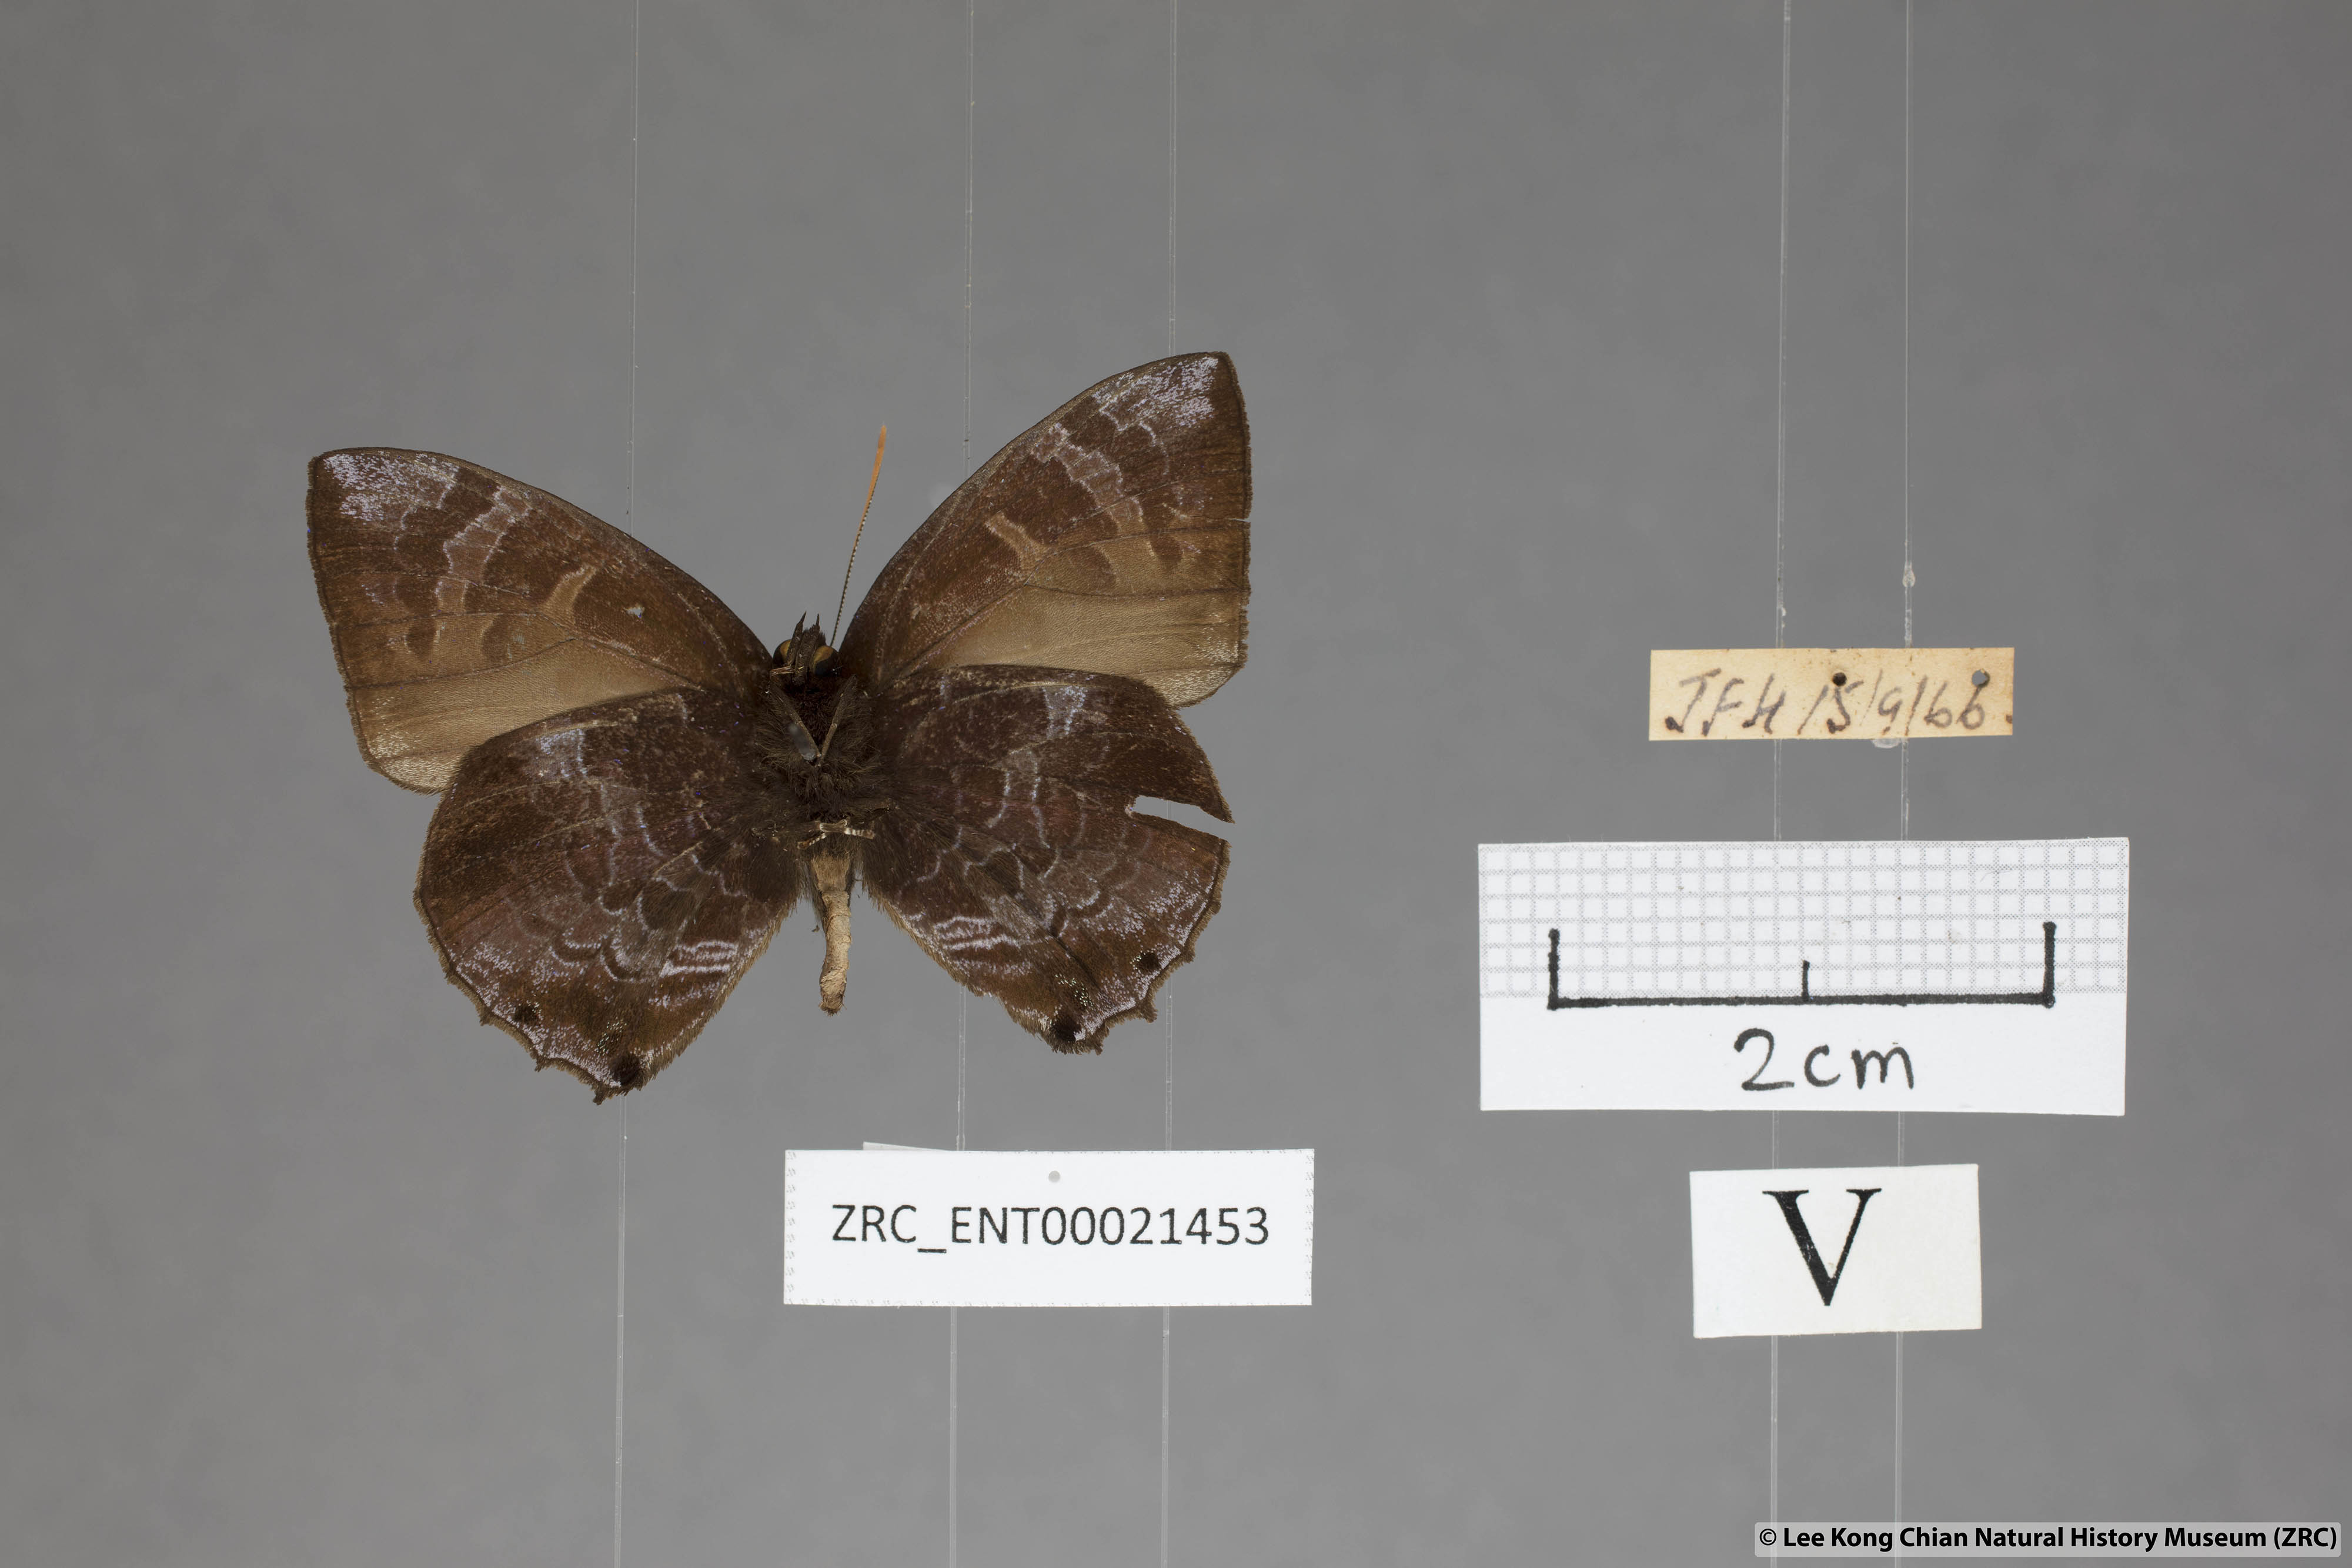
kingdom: Animalia
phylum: Arthropoda
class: Insecta
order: Lepidoptera
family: Lycaenidae
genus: Flos
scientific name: Flos
